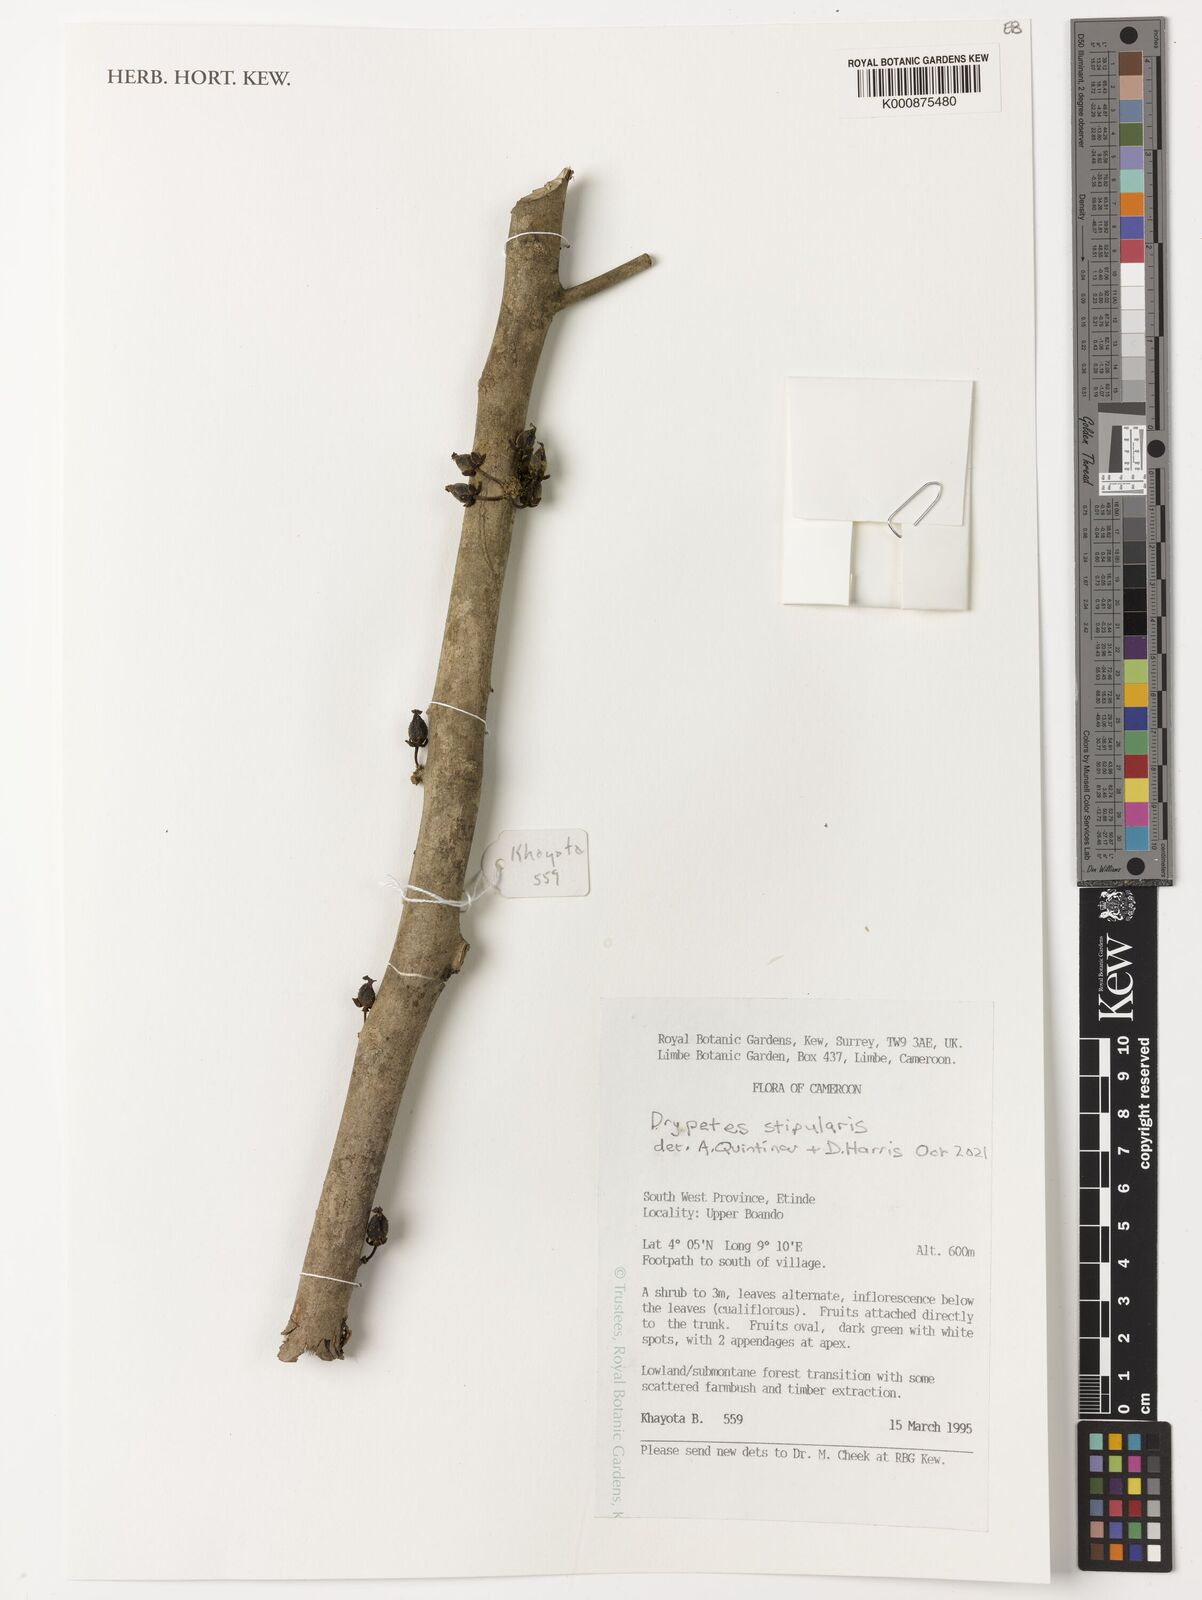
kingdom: Plantae
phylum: Tracheophyta
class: Magnoliopsida
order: Malpighiales
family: Putranjivaceae
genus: Drypetes
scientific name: Drypetes stipularis
